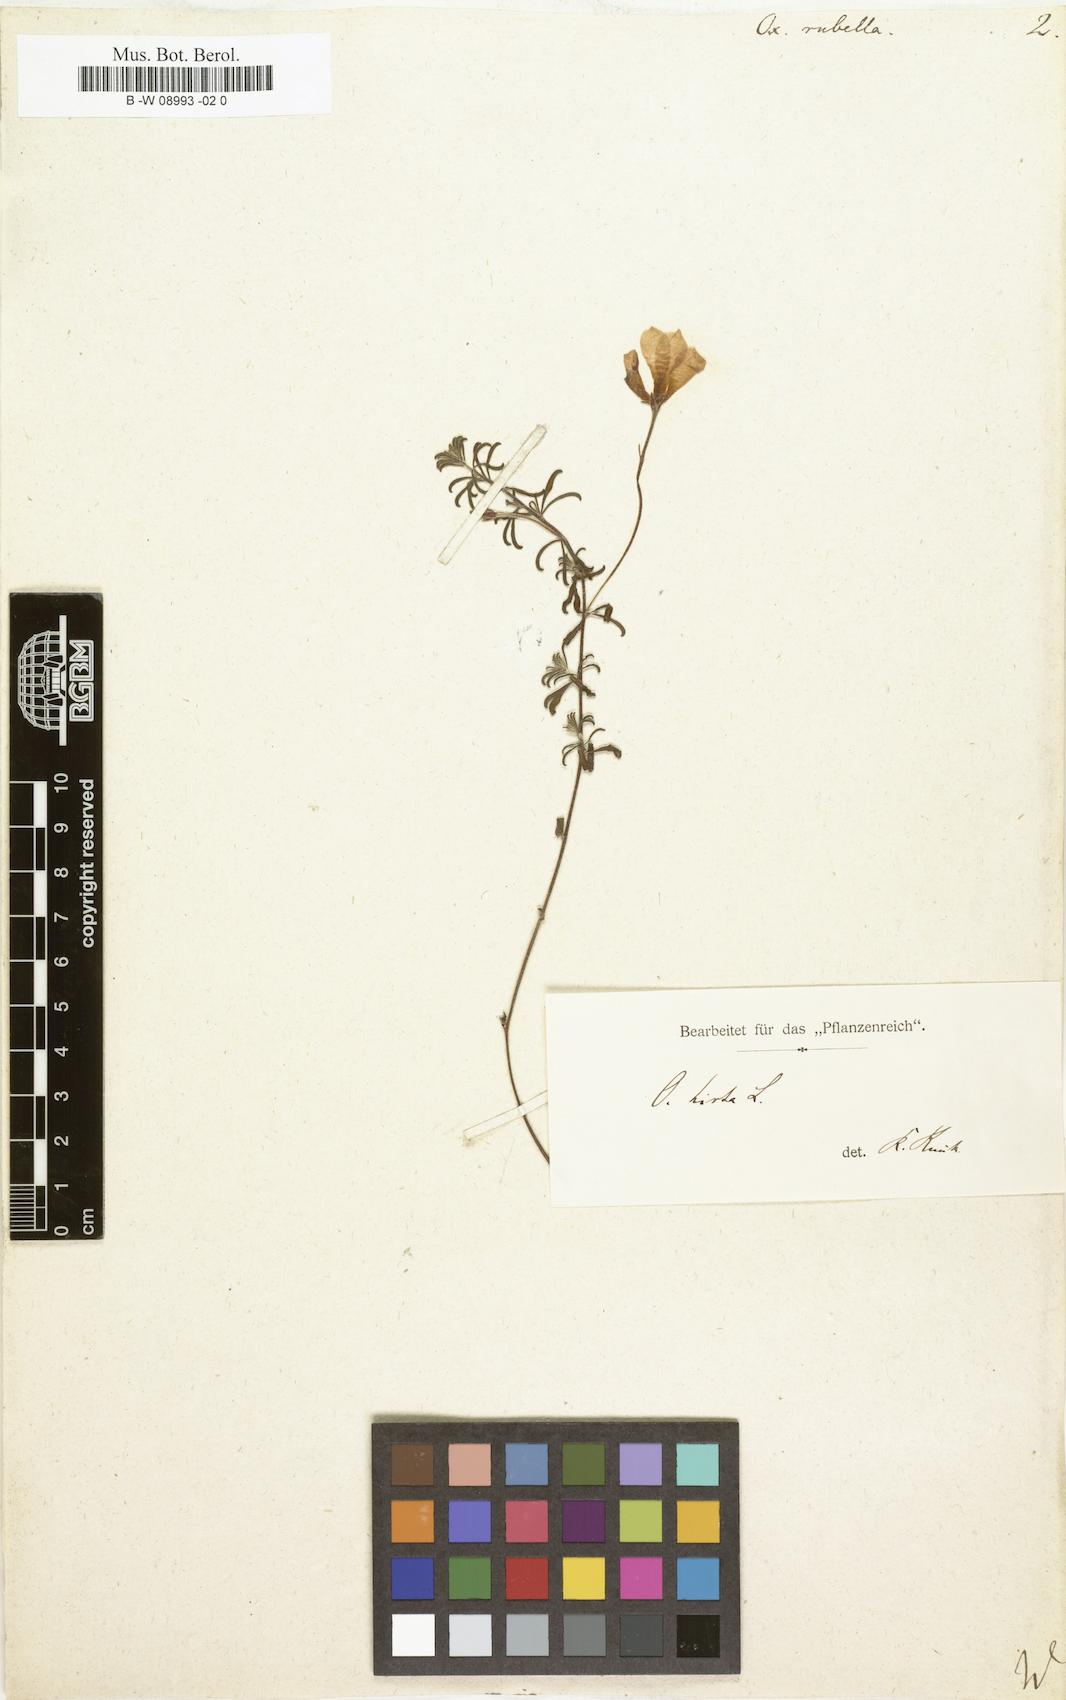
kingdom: Plantae
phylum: Tracheophyta
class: Magnoliopsida
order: Oxalidales
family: Oxalidaceae
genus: Oxalis
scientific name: Oxalis hirta
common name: Tropical woodsorrel
